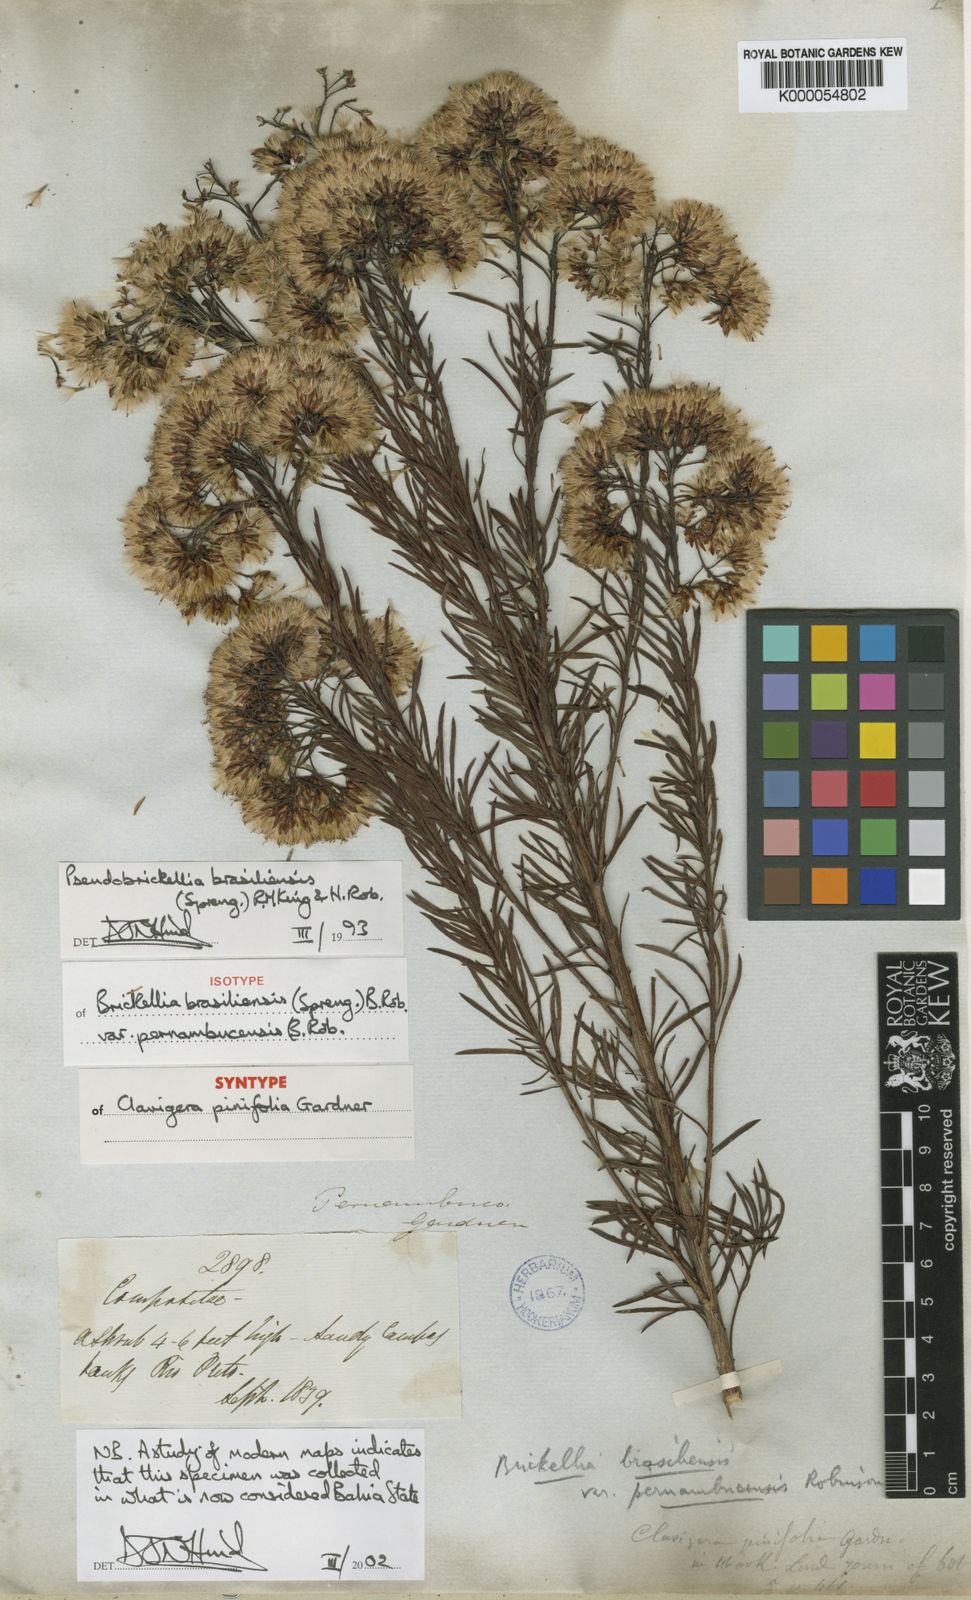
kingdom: Plantae
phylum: Tracheophyta
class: Magnoliopsida
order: Asterales
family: Asteraceae
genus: Pseudobrickellia
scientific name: Pseudobrickellia brasiliensis
